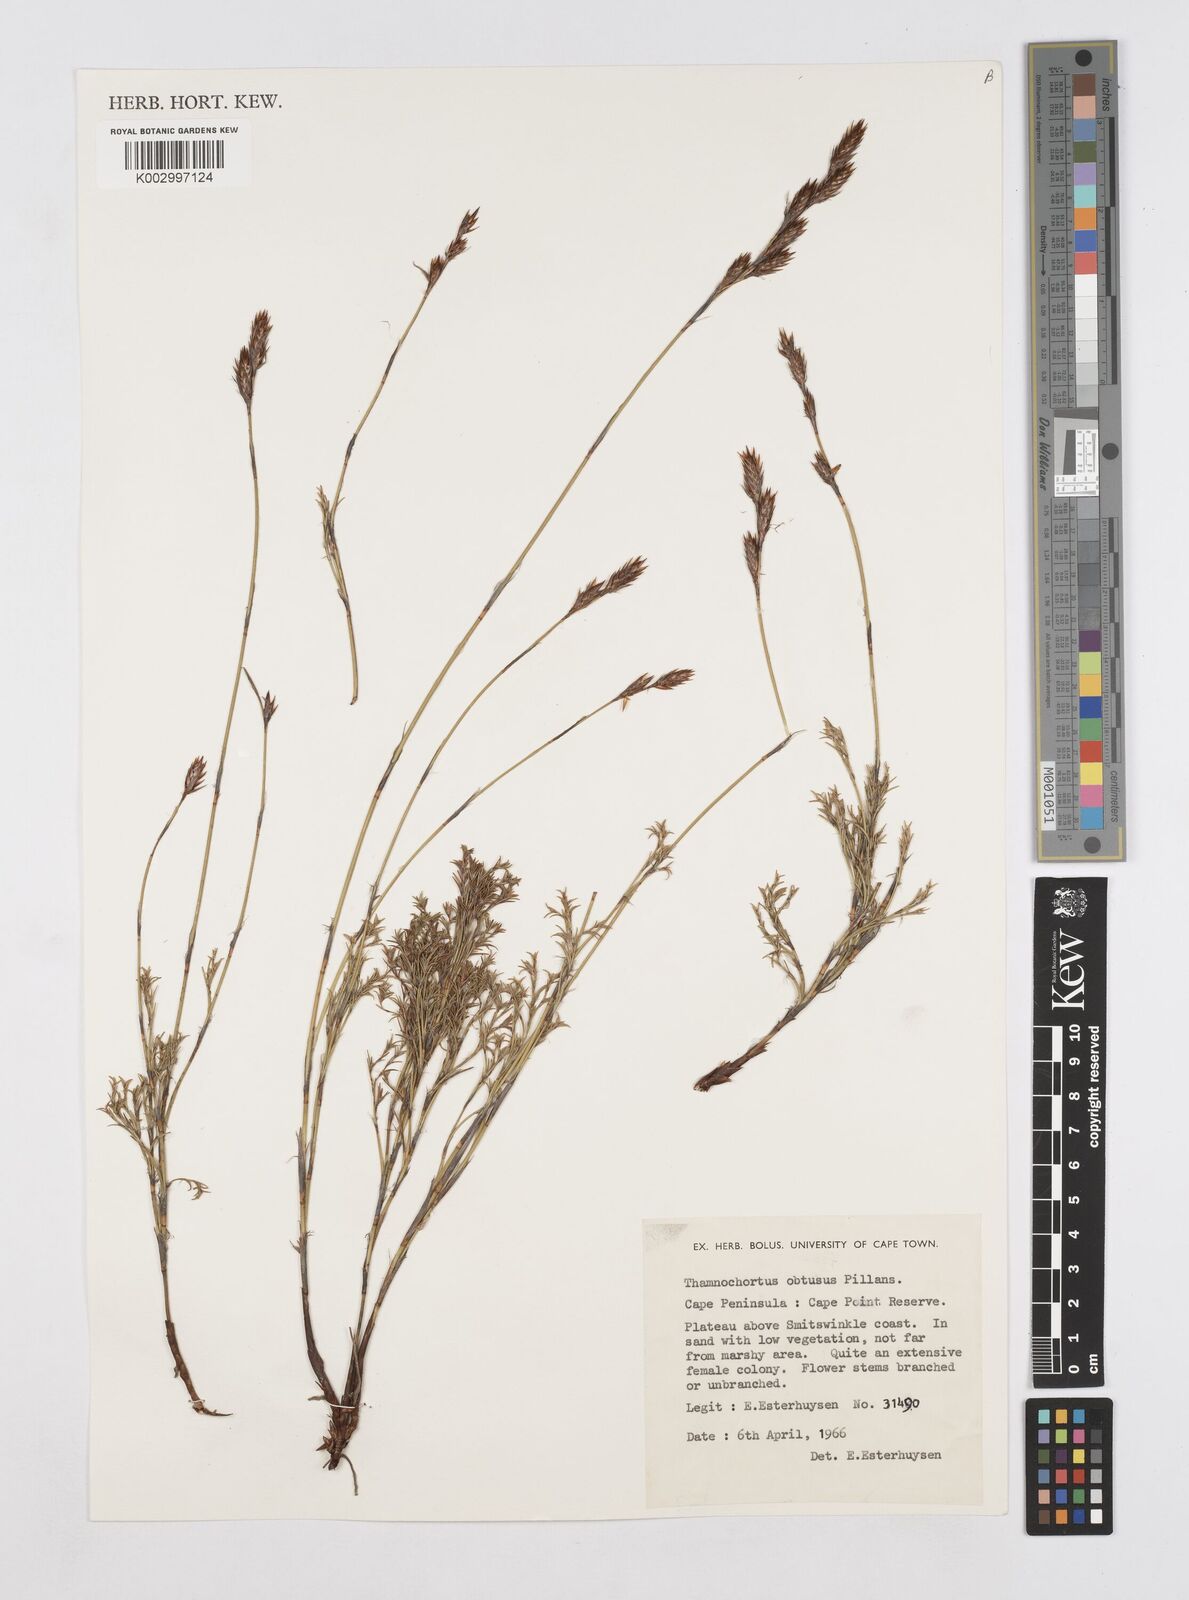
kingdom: Plantae
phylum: Tracheophyta
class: Liliopsida
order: Poales
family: Restionaceae
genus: Thamnochortus
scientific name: Thamnochortus obtusus
